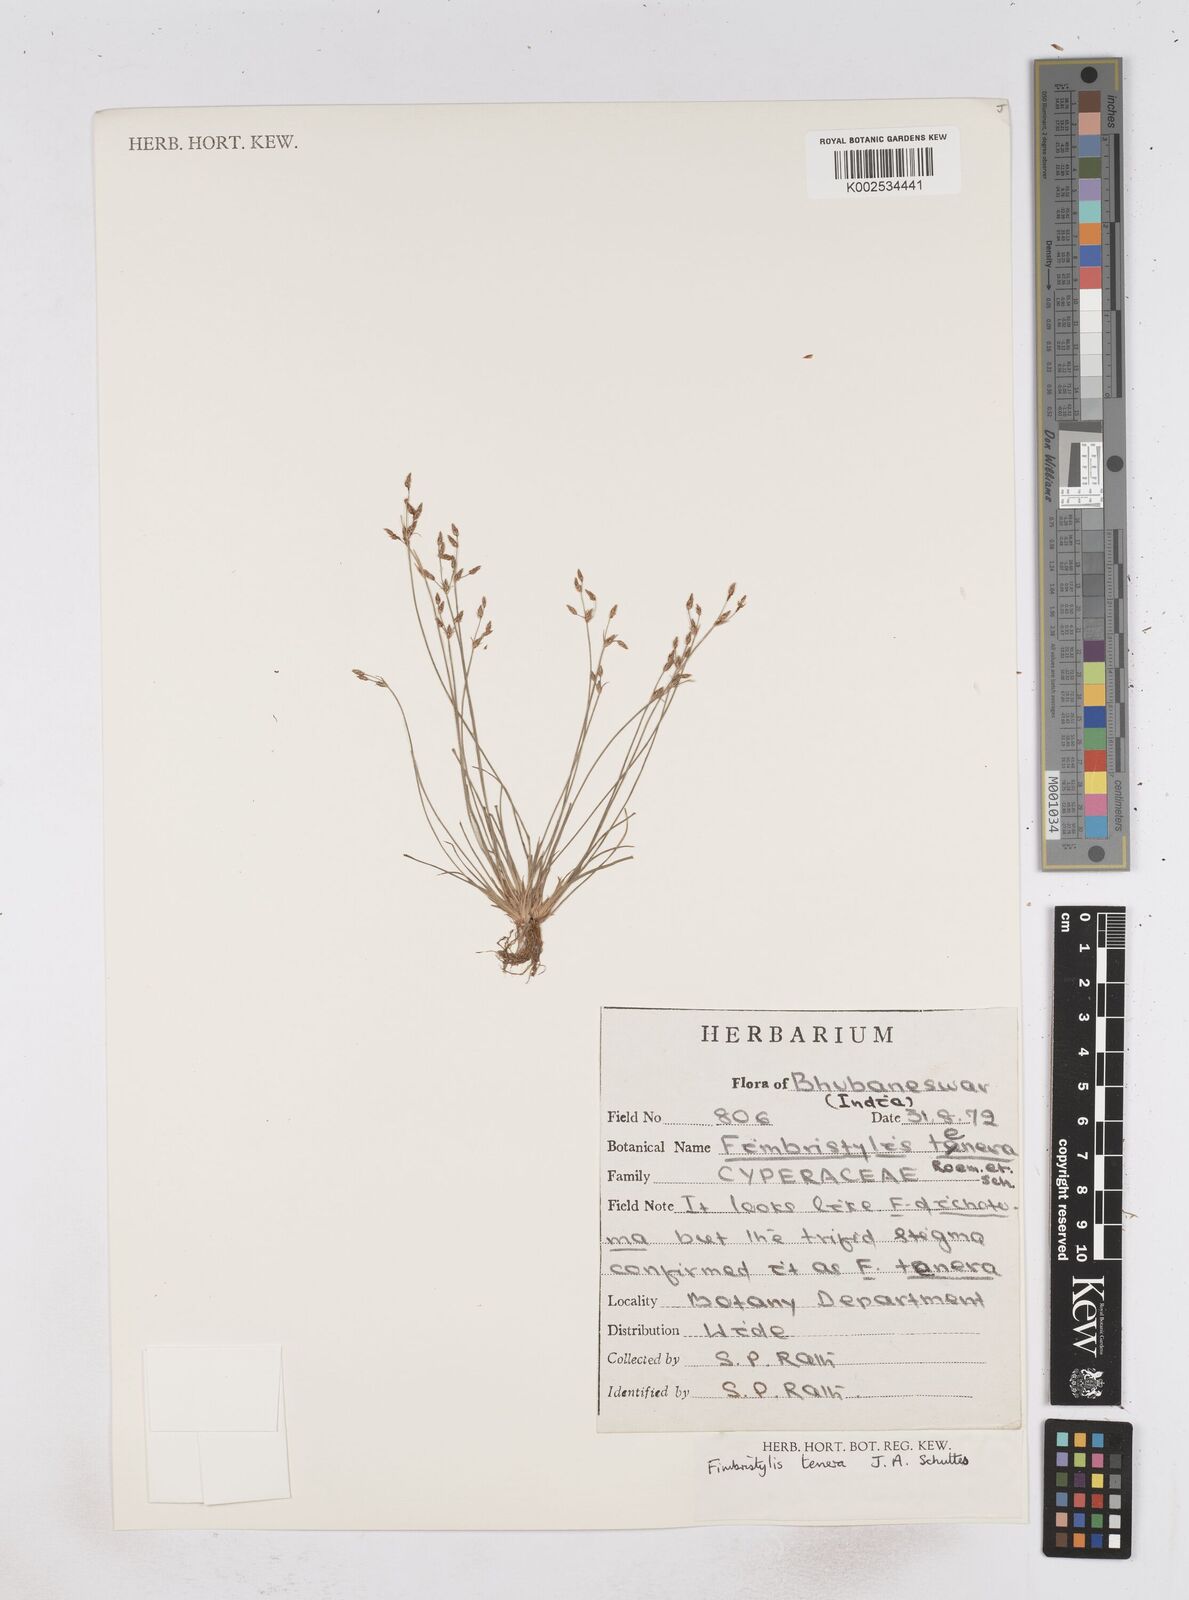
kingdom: Plantae
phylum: Tracheophyta
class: Liliopsida
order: Poales
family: Cyperaceae
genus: Fimbristylis
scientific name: Fimbristylis tenera
